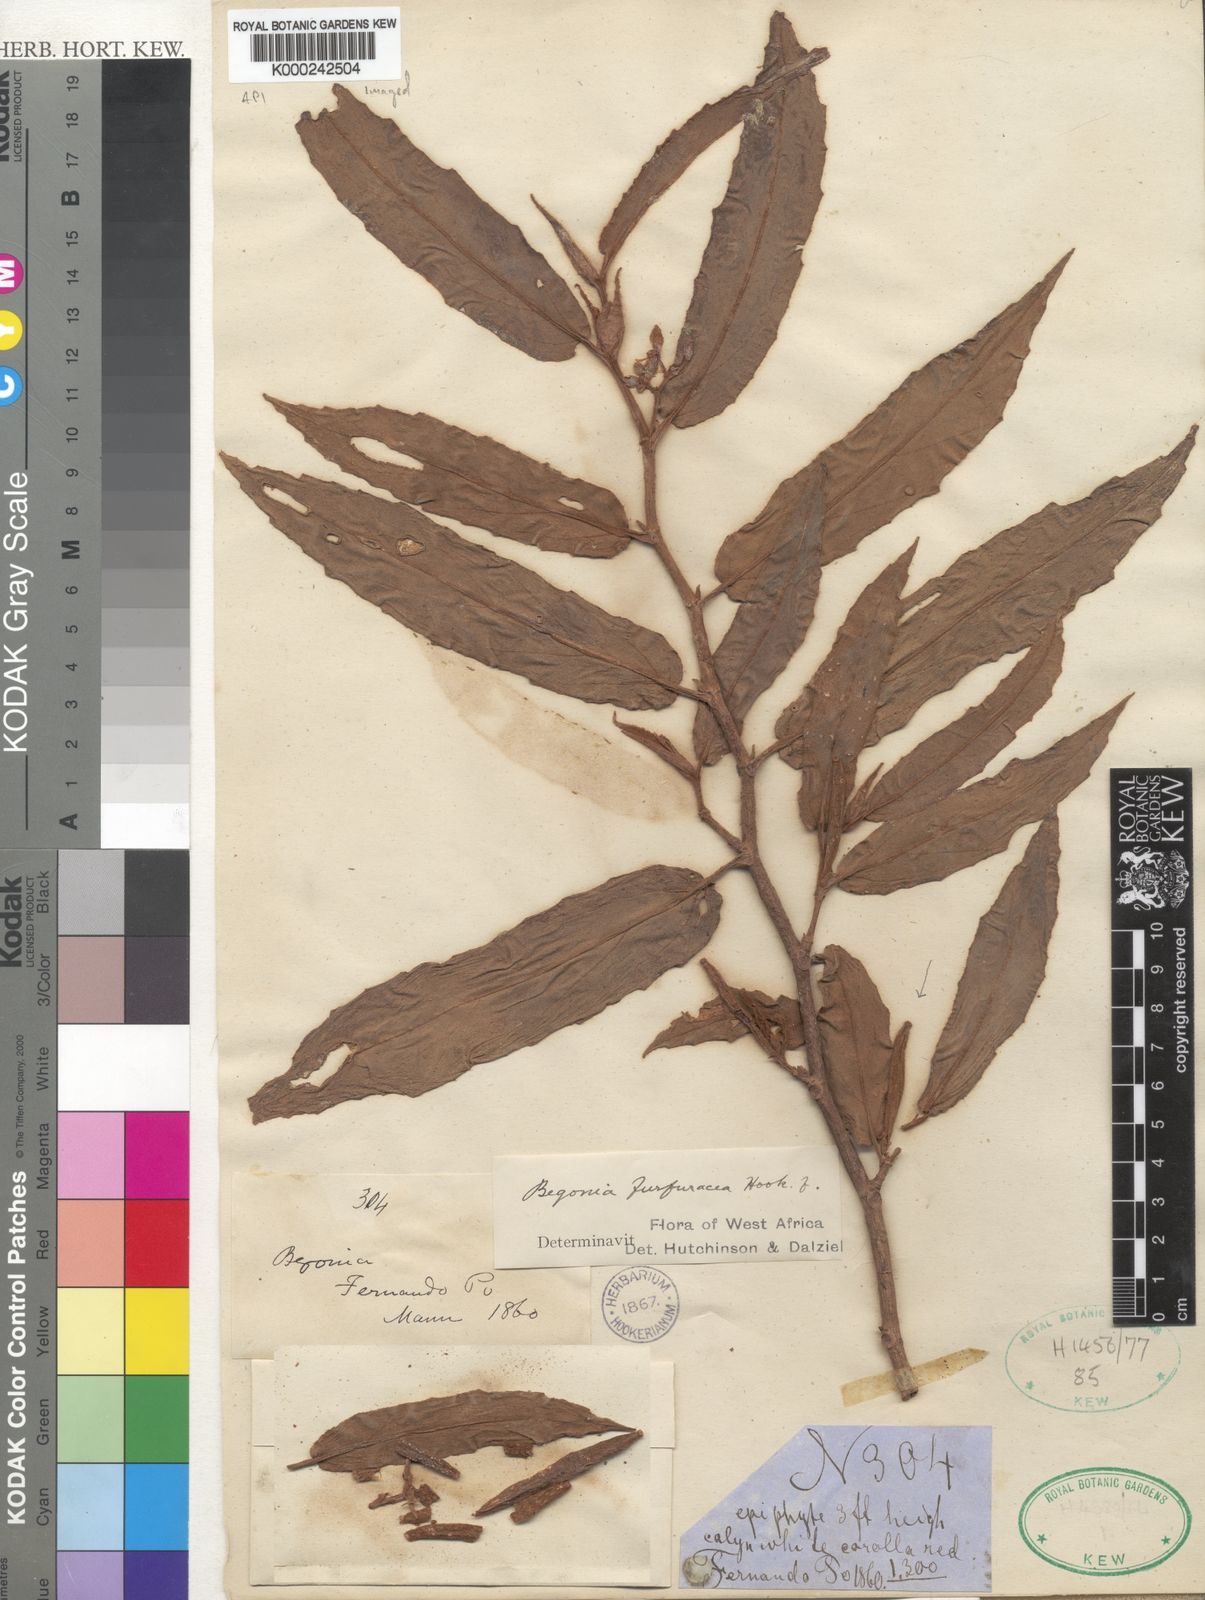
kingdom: Plantae
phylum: Tracheophyta
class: Magnoliopsida
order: Cucurbitales
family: Begoniaceae
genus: Begonia
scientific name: Begonia furfuracea
